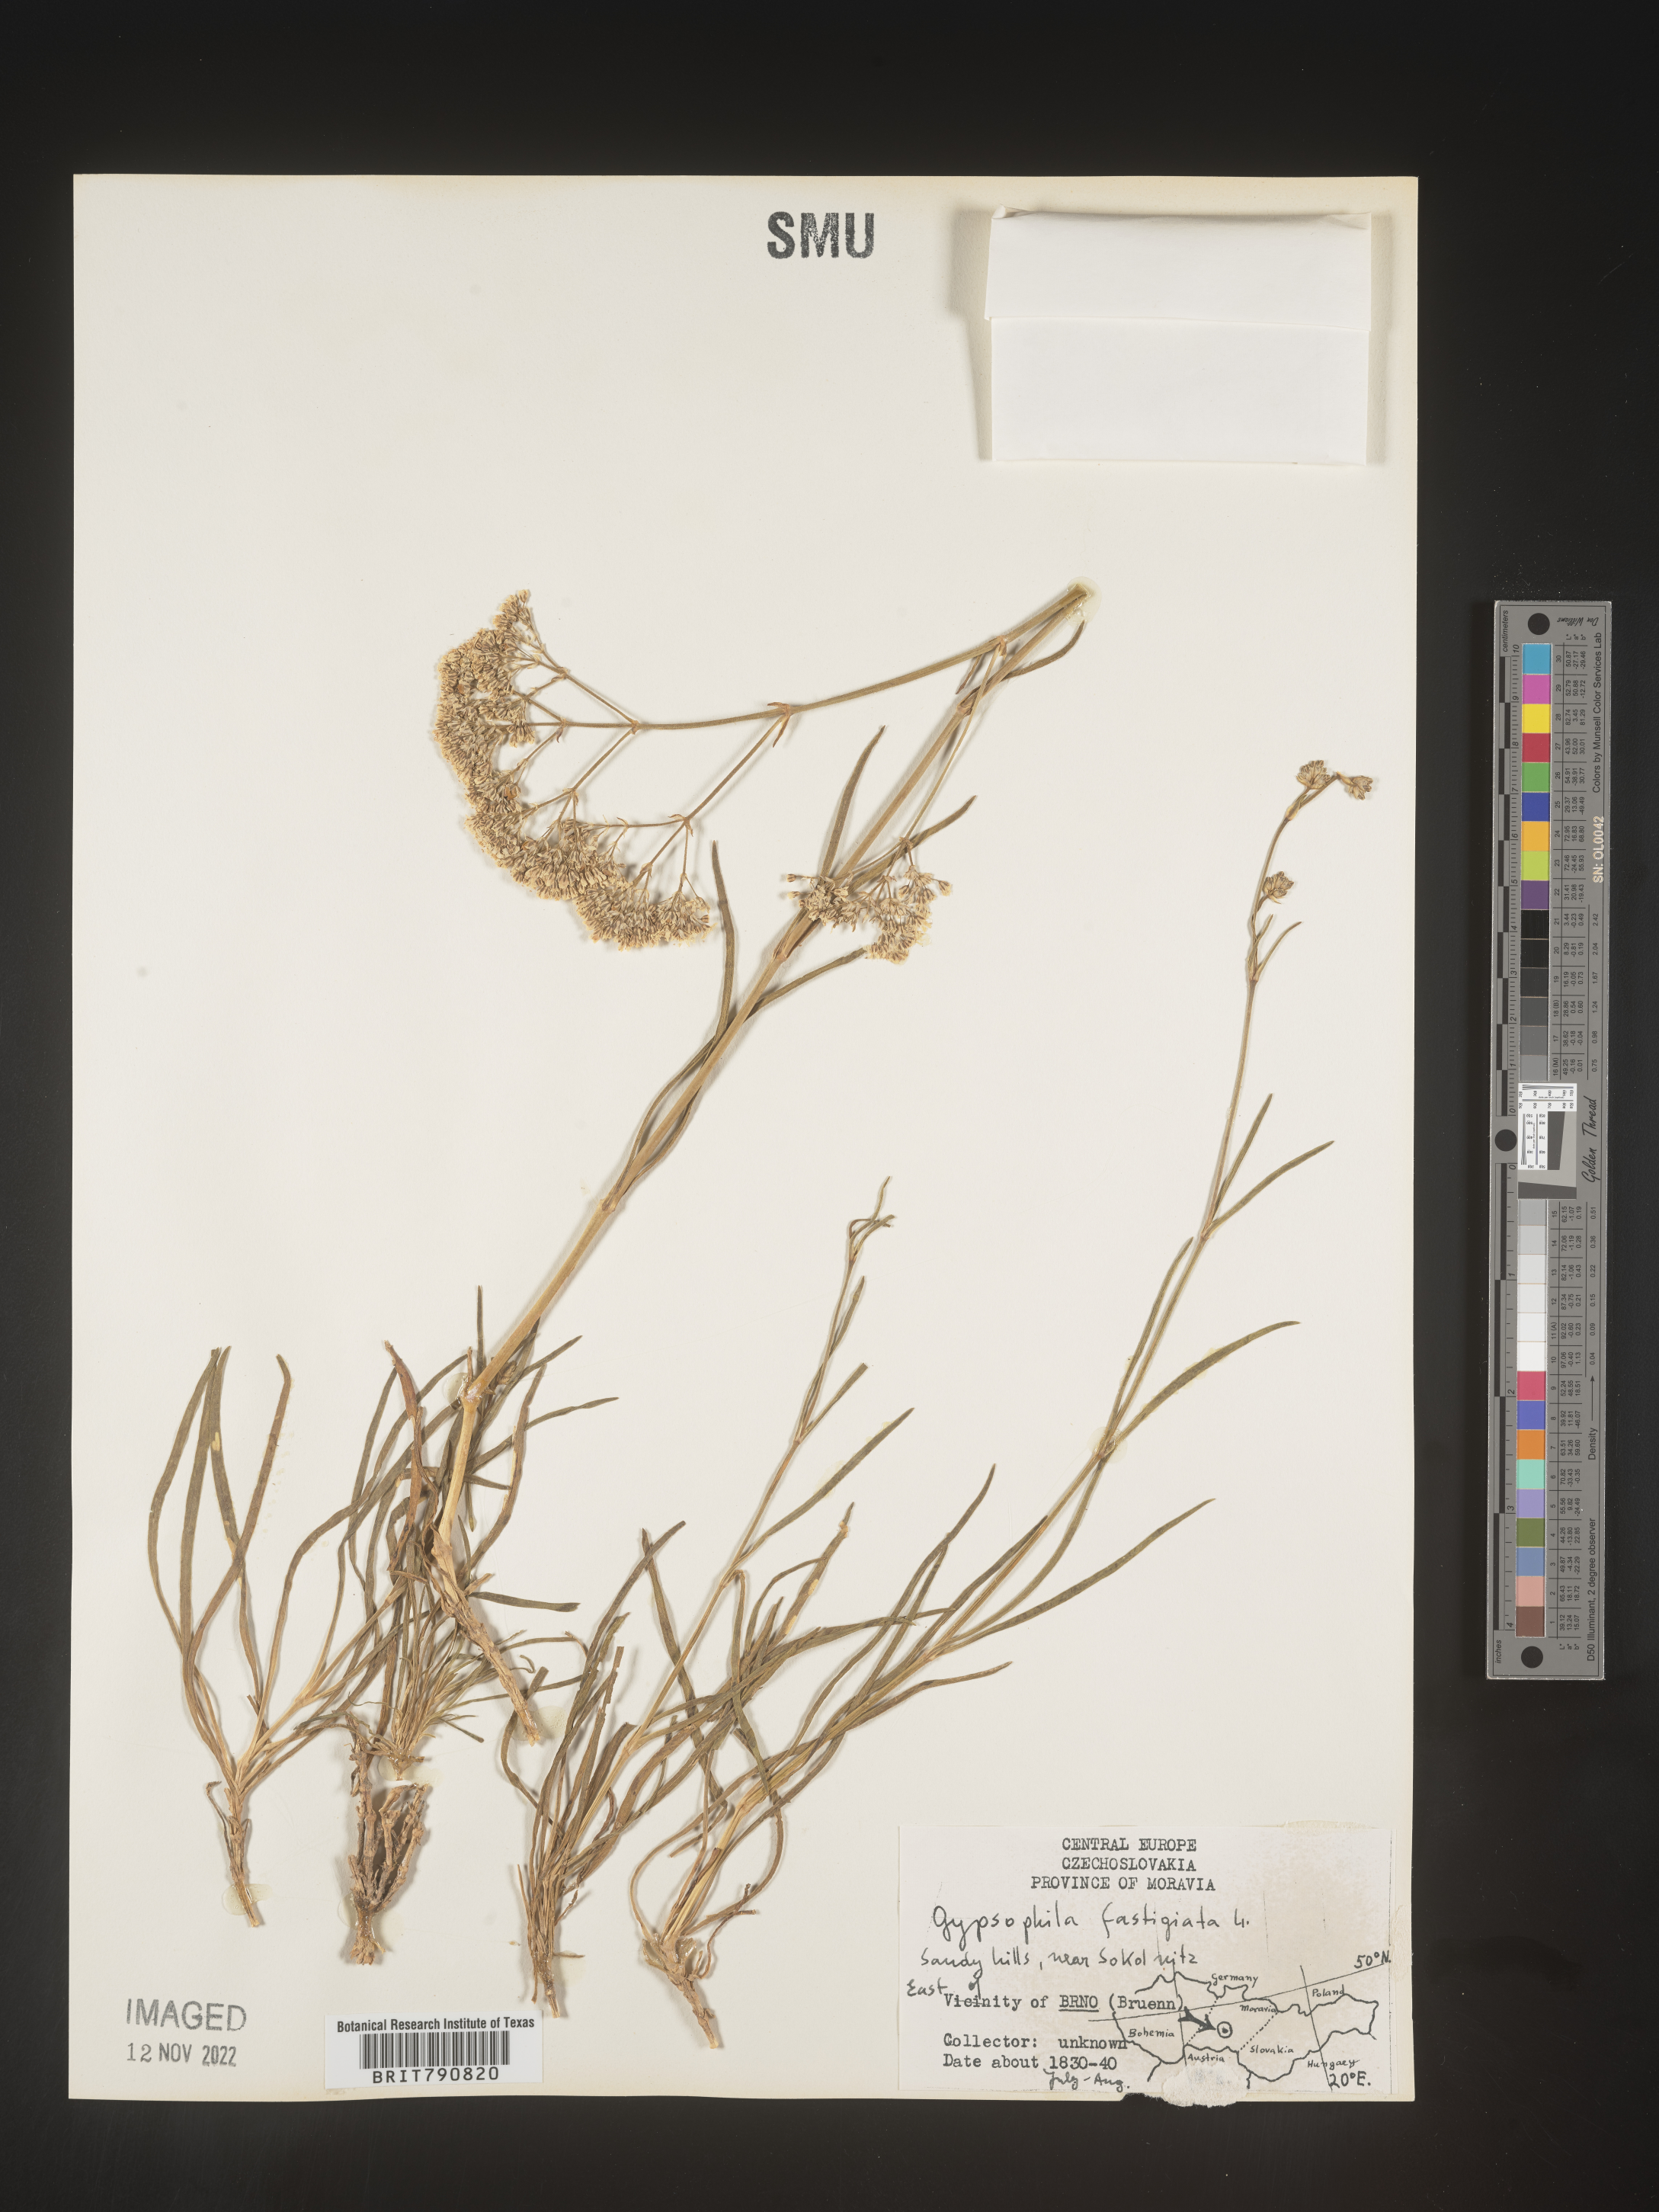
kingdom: Plantae
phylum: Tracheophyta
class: Magnoliopsida
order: Caryophyllales
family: Caryophyllaceae
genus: Gypsophila
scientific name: Gypsophila
